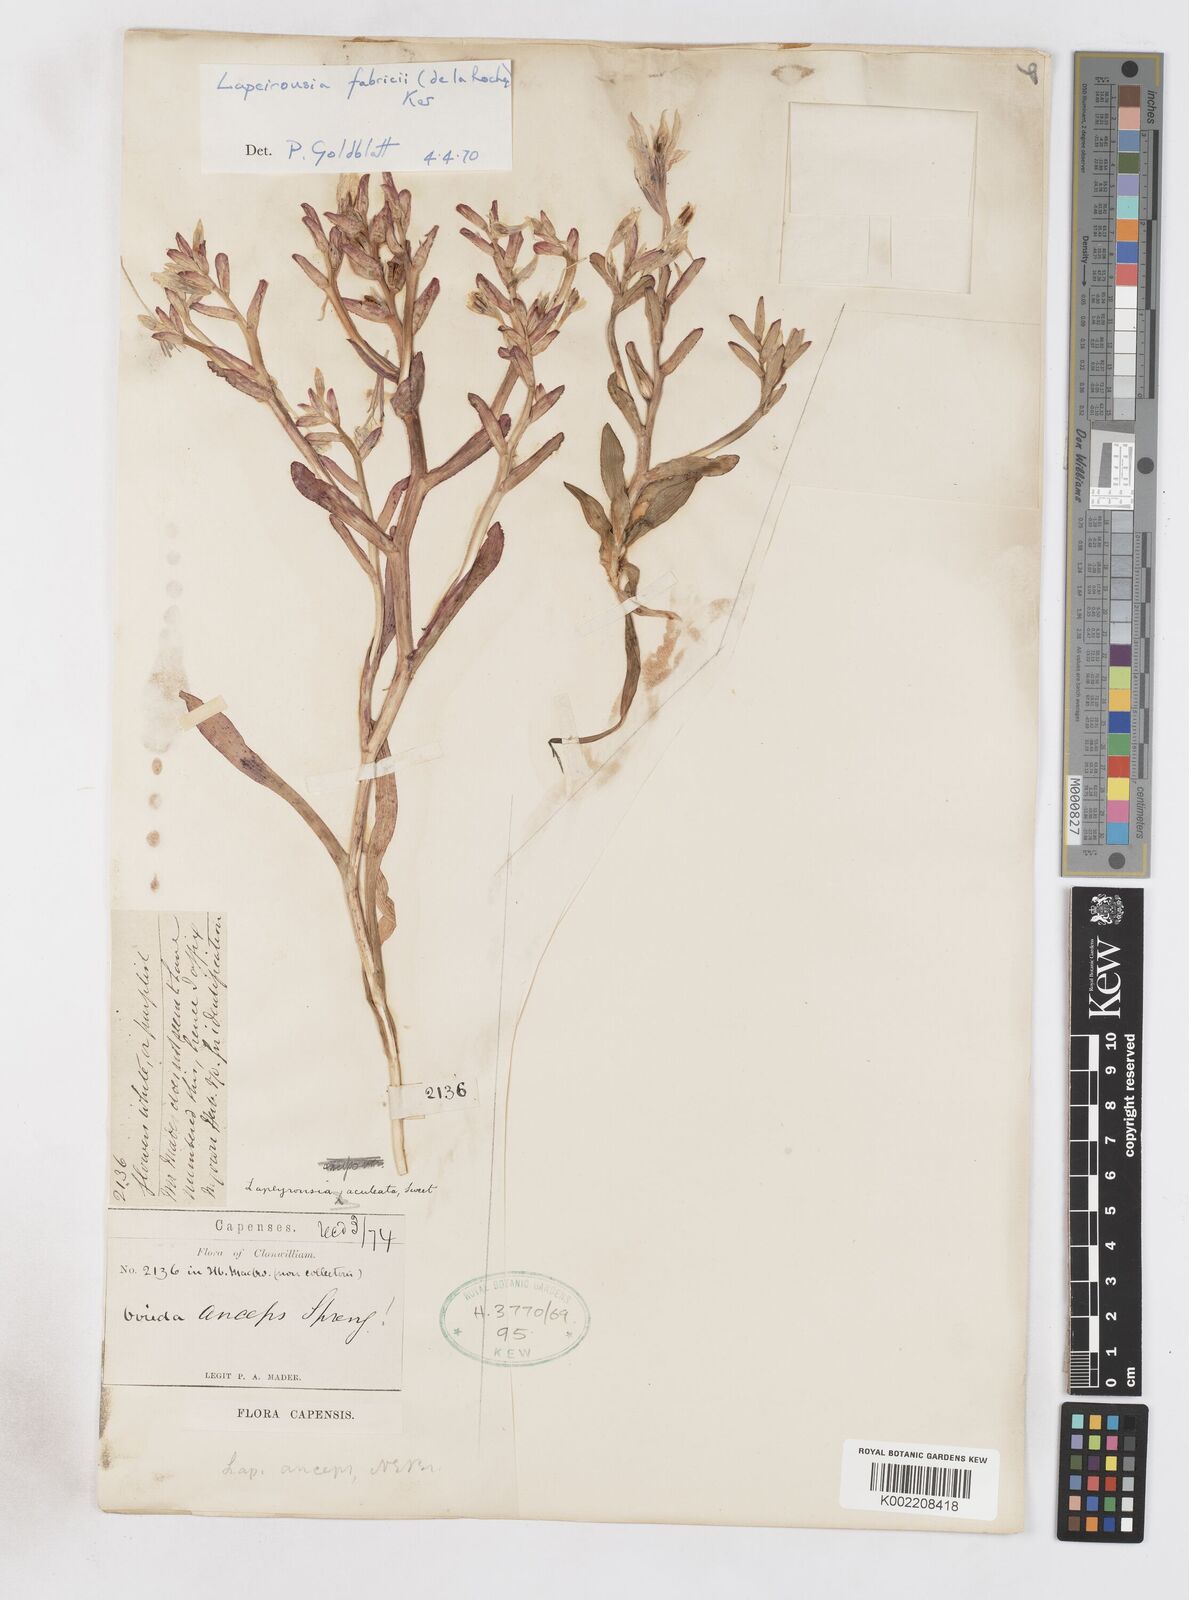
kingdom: Plantae
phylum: Tracheophyta
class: Liliopsida
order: Asparagales
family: Iridaceae
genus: Lapeirousia
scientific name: Lapeirousia fabricii
